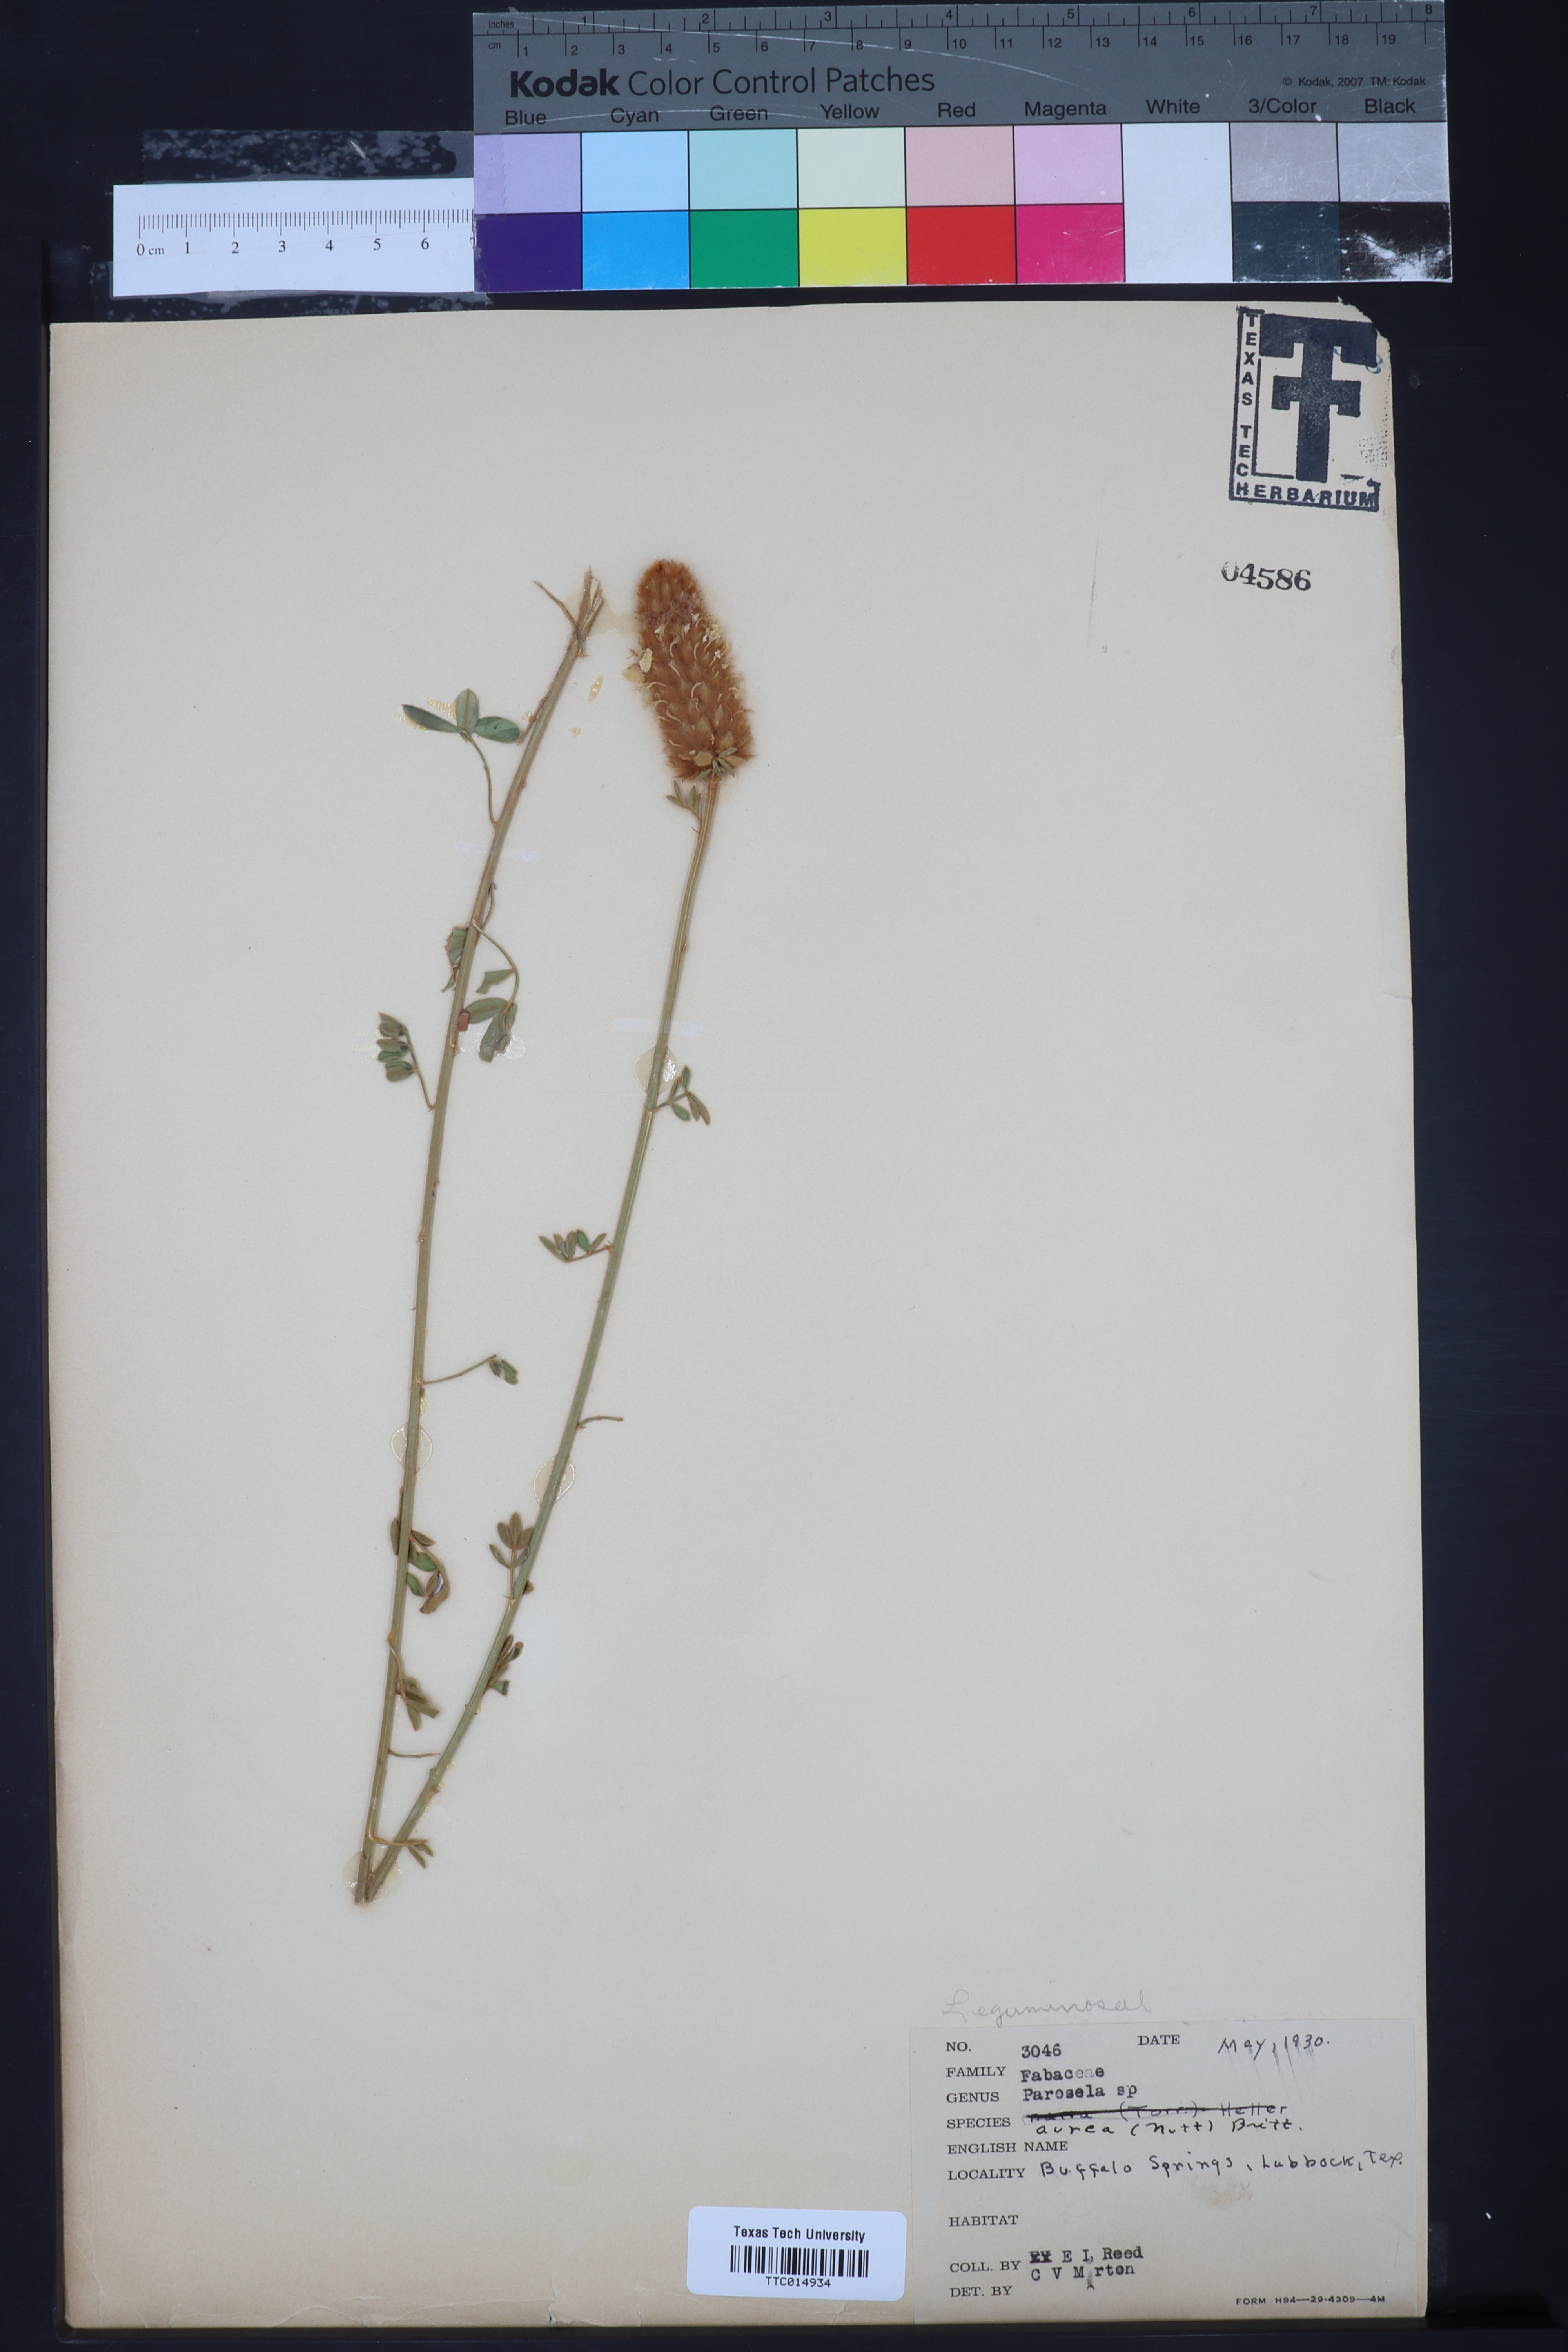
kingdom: Plantae
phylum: Tracheophyta
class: Magnoliopsida
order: Fabales
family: Fabaceae
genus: Dalea
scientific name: Dalea aurea
